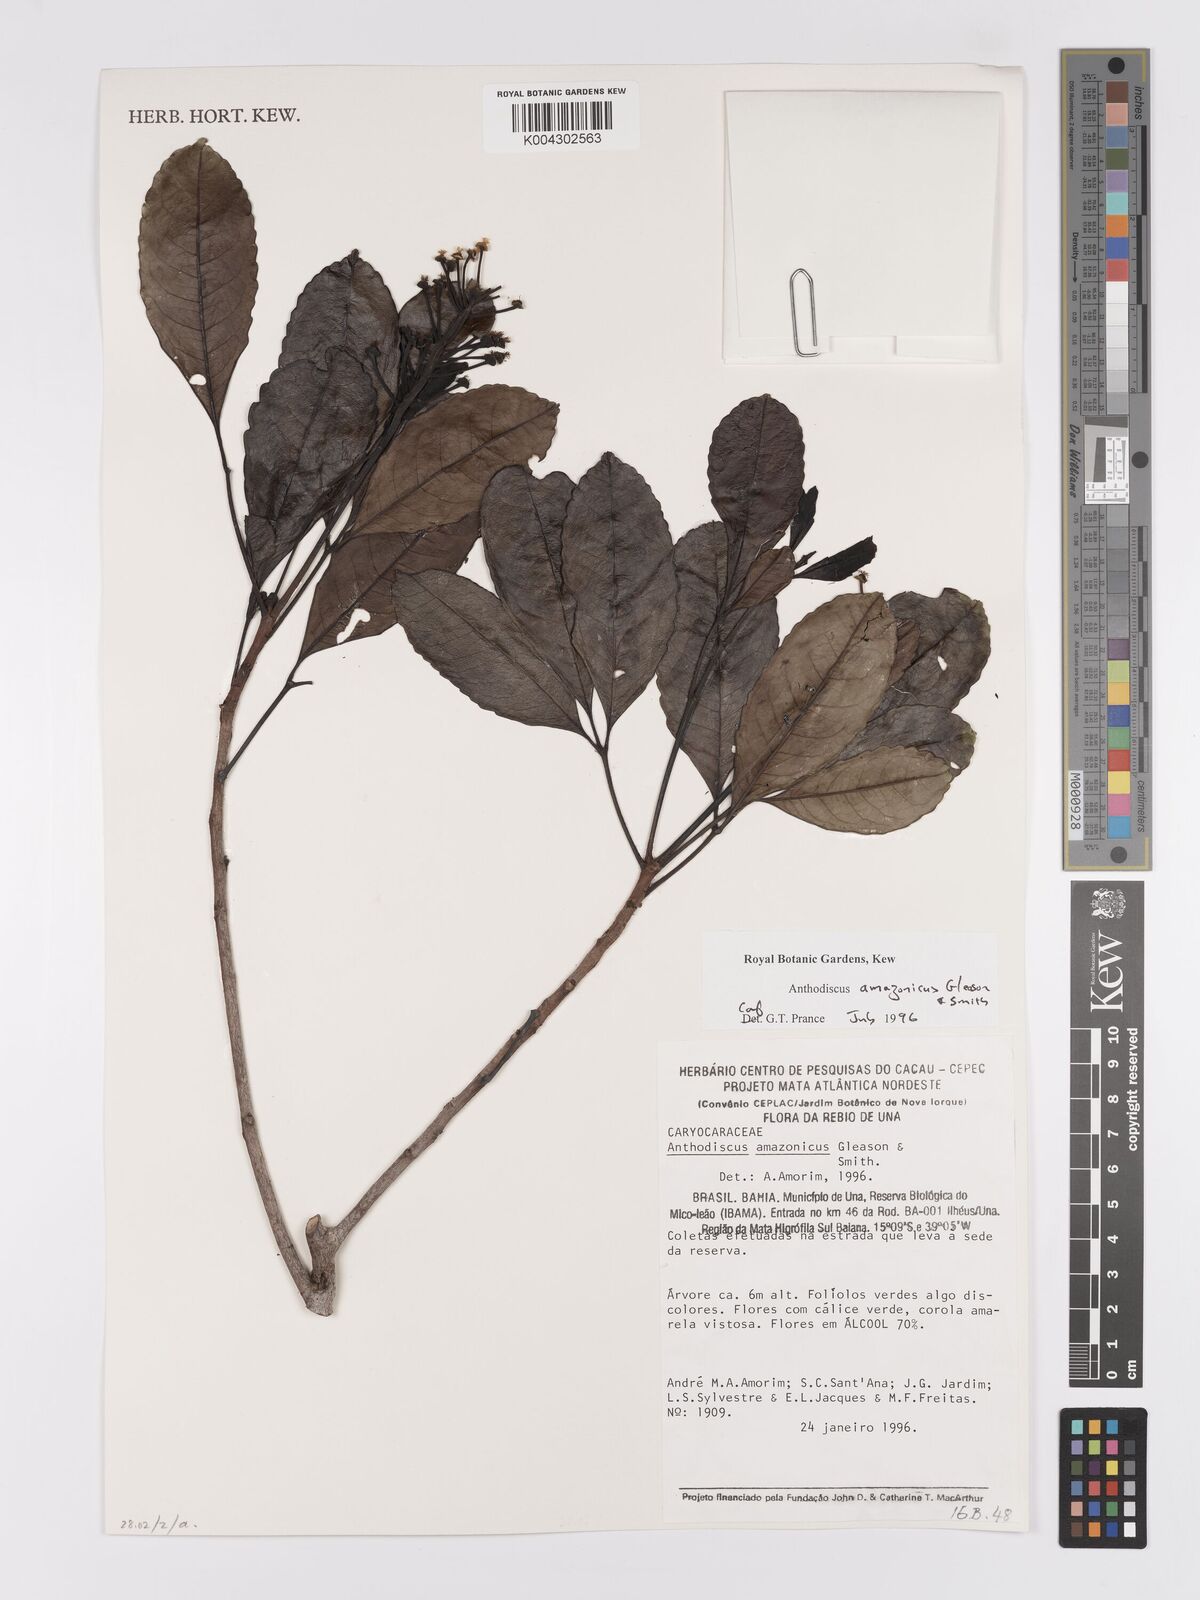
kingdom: Plantae
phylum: Tracheophyta
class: Magnoliopsida
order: Malpighiales
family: Caryocaraceae
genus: Anthodiscus
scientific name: Anthodiscus amazonicus
